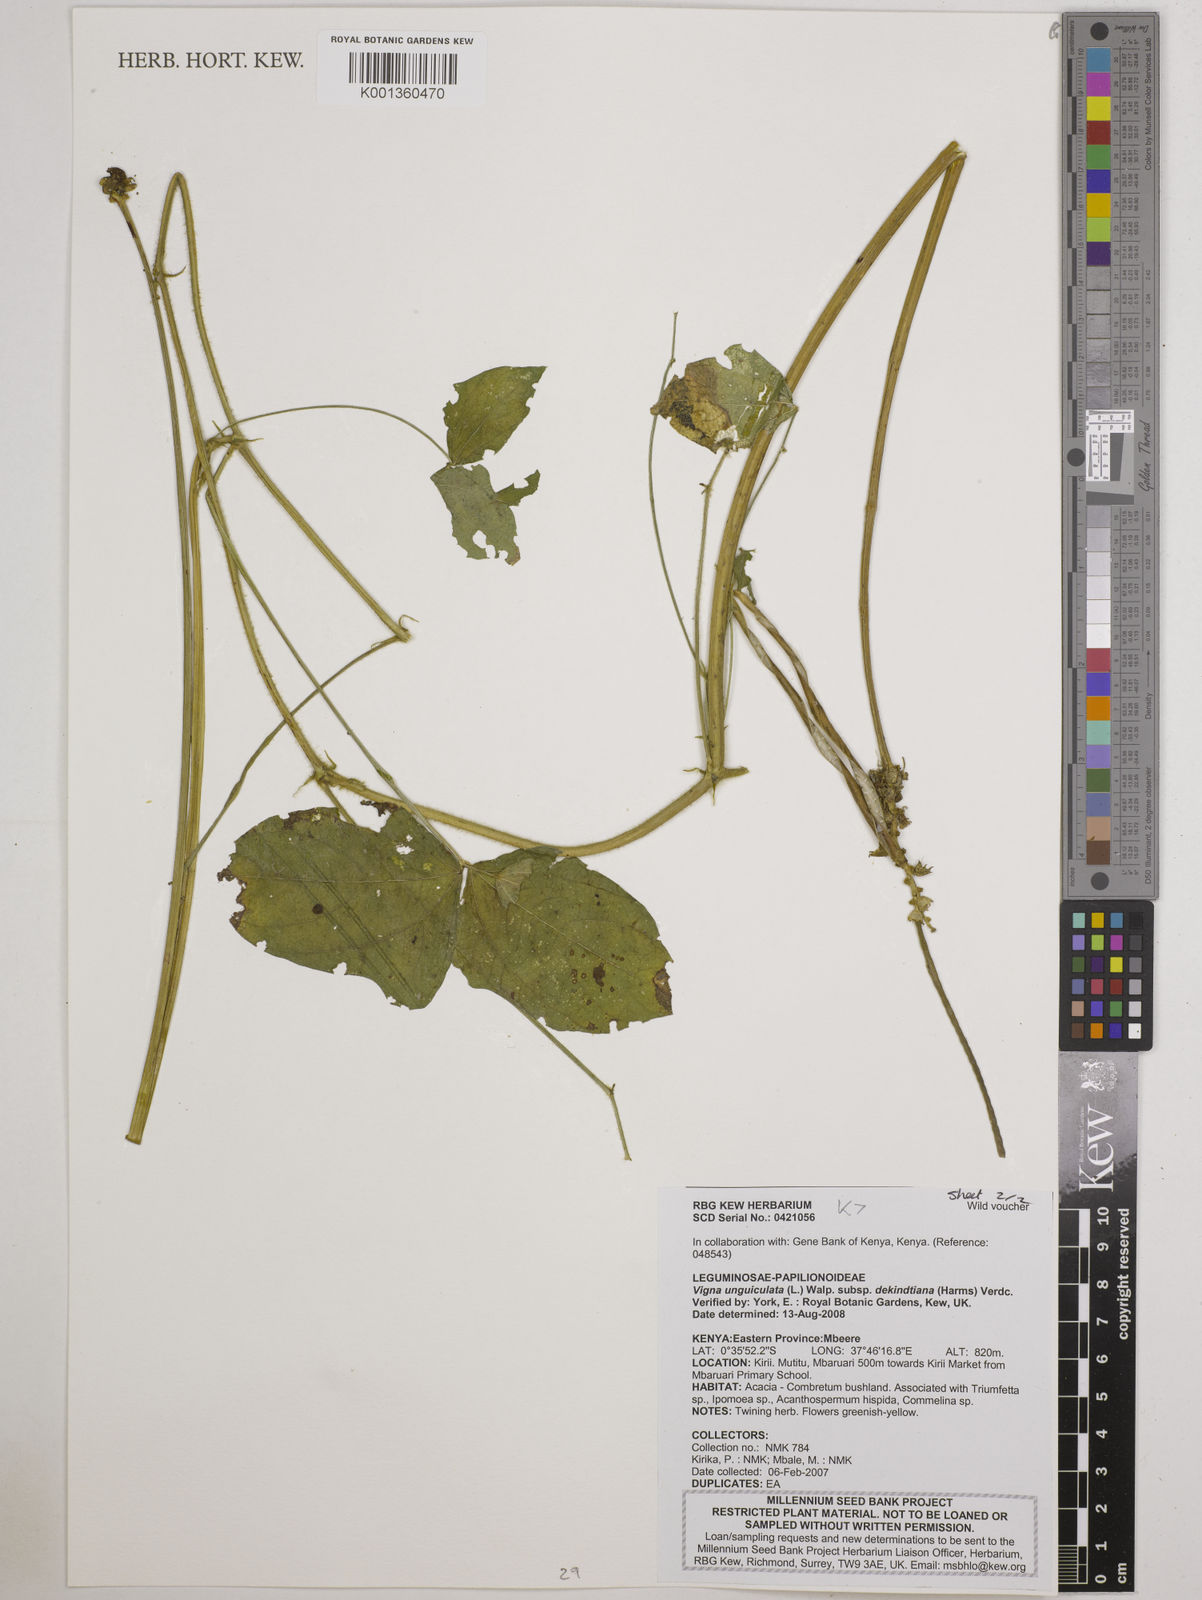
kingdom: Plantae
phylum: Tracheophyta
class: Magnoliopsida
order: Fabales
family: Fabaceae
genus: Vigna
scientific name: Vigna
